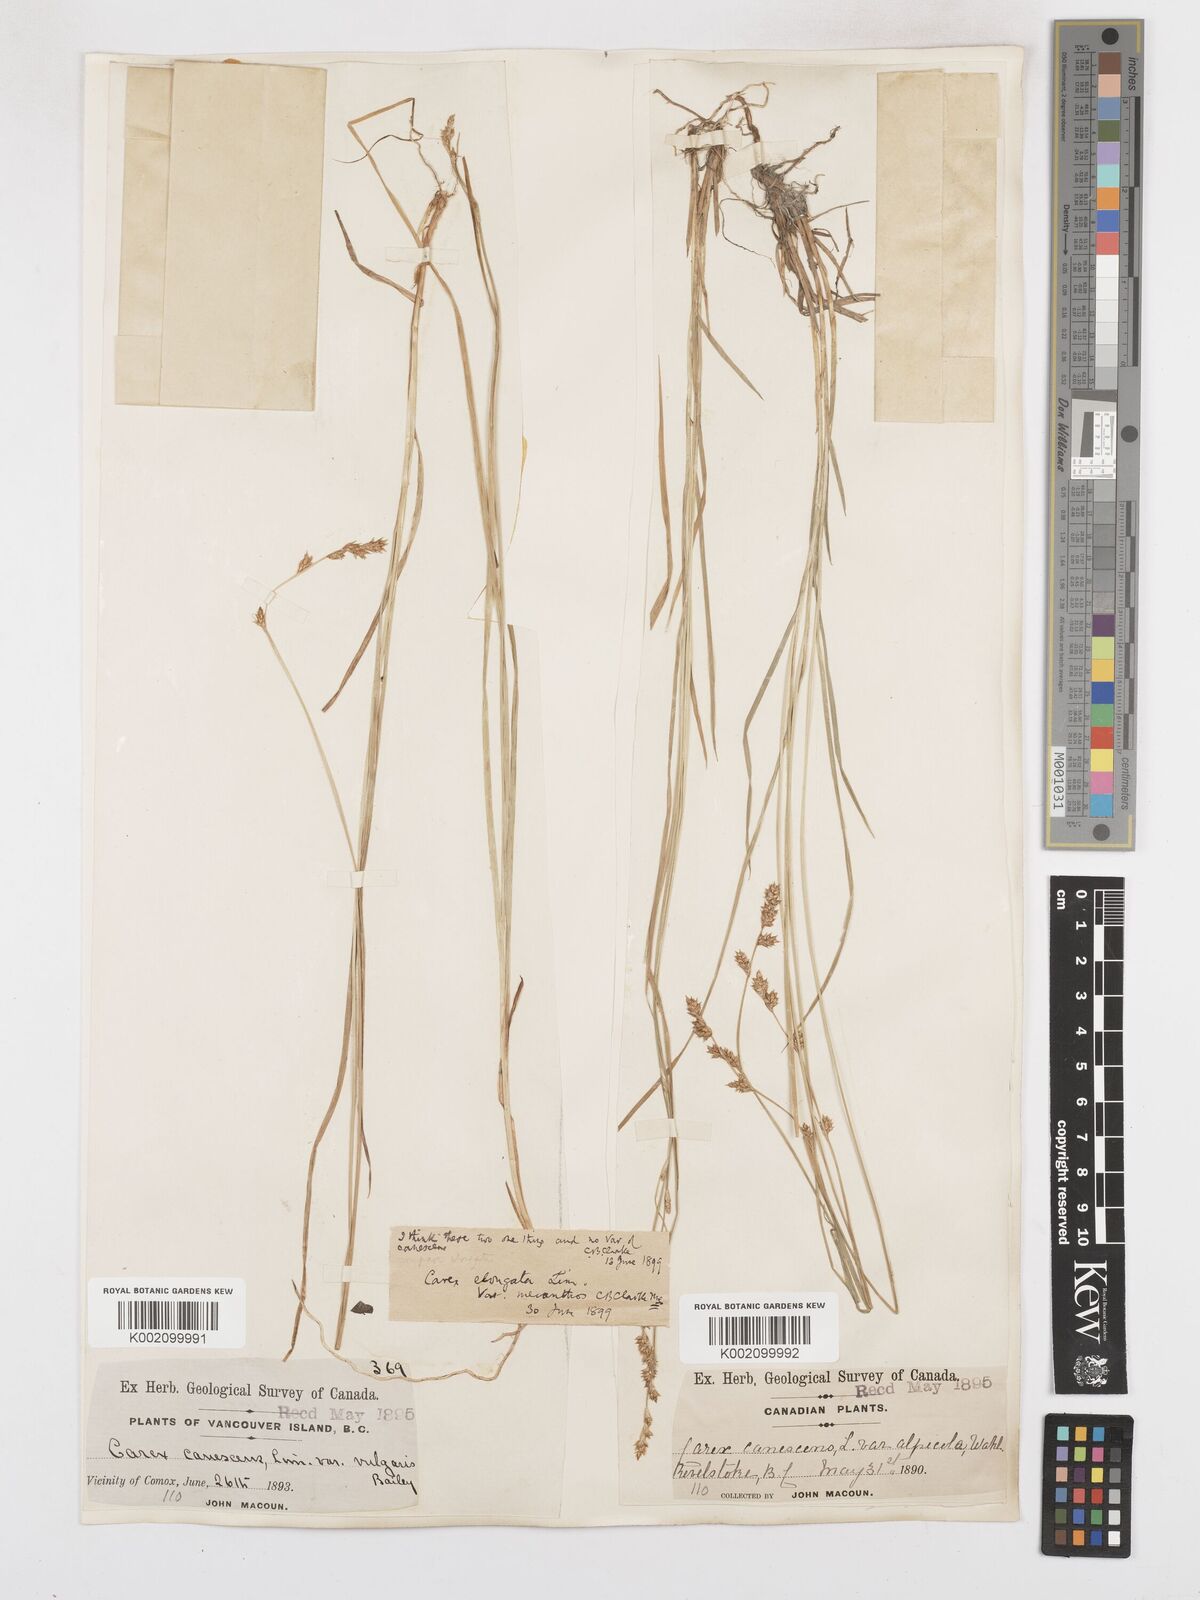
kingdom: Plantae
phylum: Tracheophyta
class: Liliopsida
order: Poales
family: Cyperaceae
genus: Carex
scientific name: Carex laeviculmis
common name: Smooth sedge
